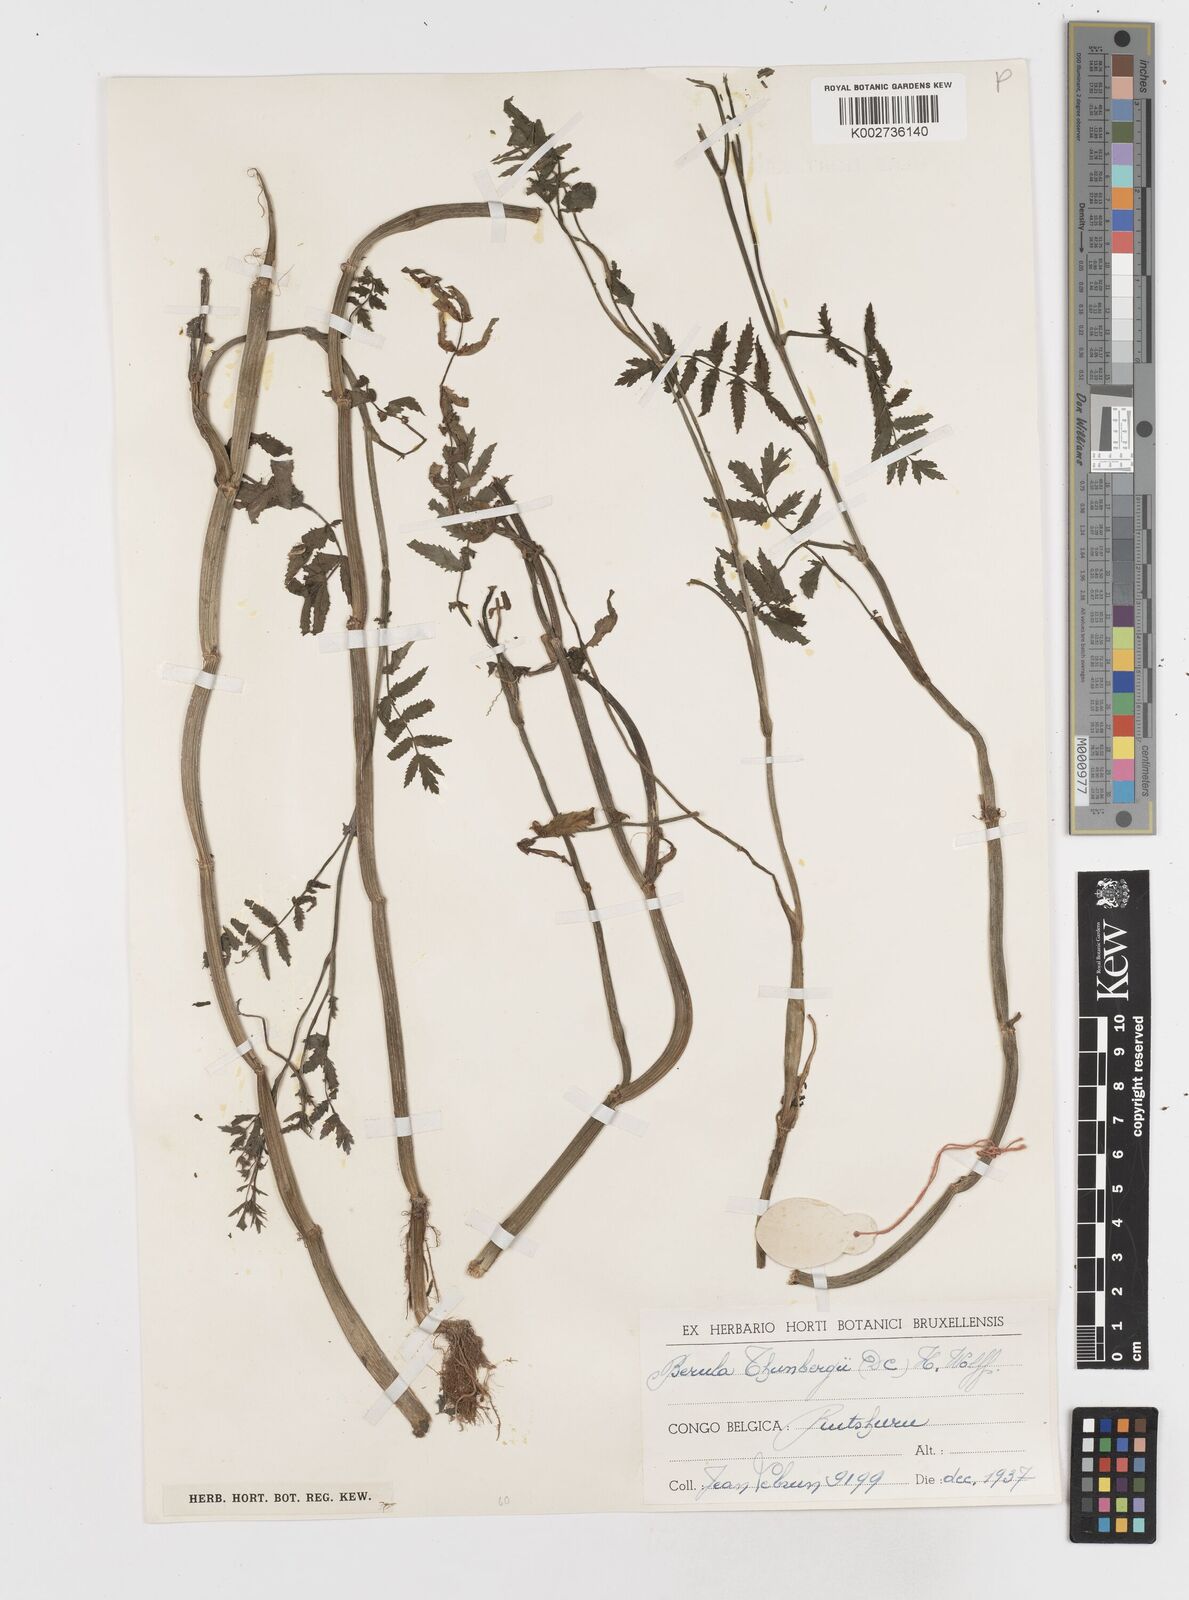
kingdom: Plantae
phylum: Tracheophyta
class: Magnoliopsida
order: Apiales
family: Apiaceae
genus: Berula
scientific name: Berula erecta
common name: Lesser water-parsnip
